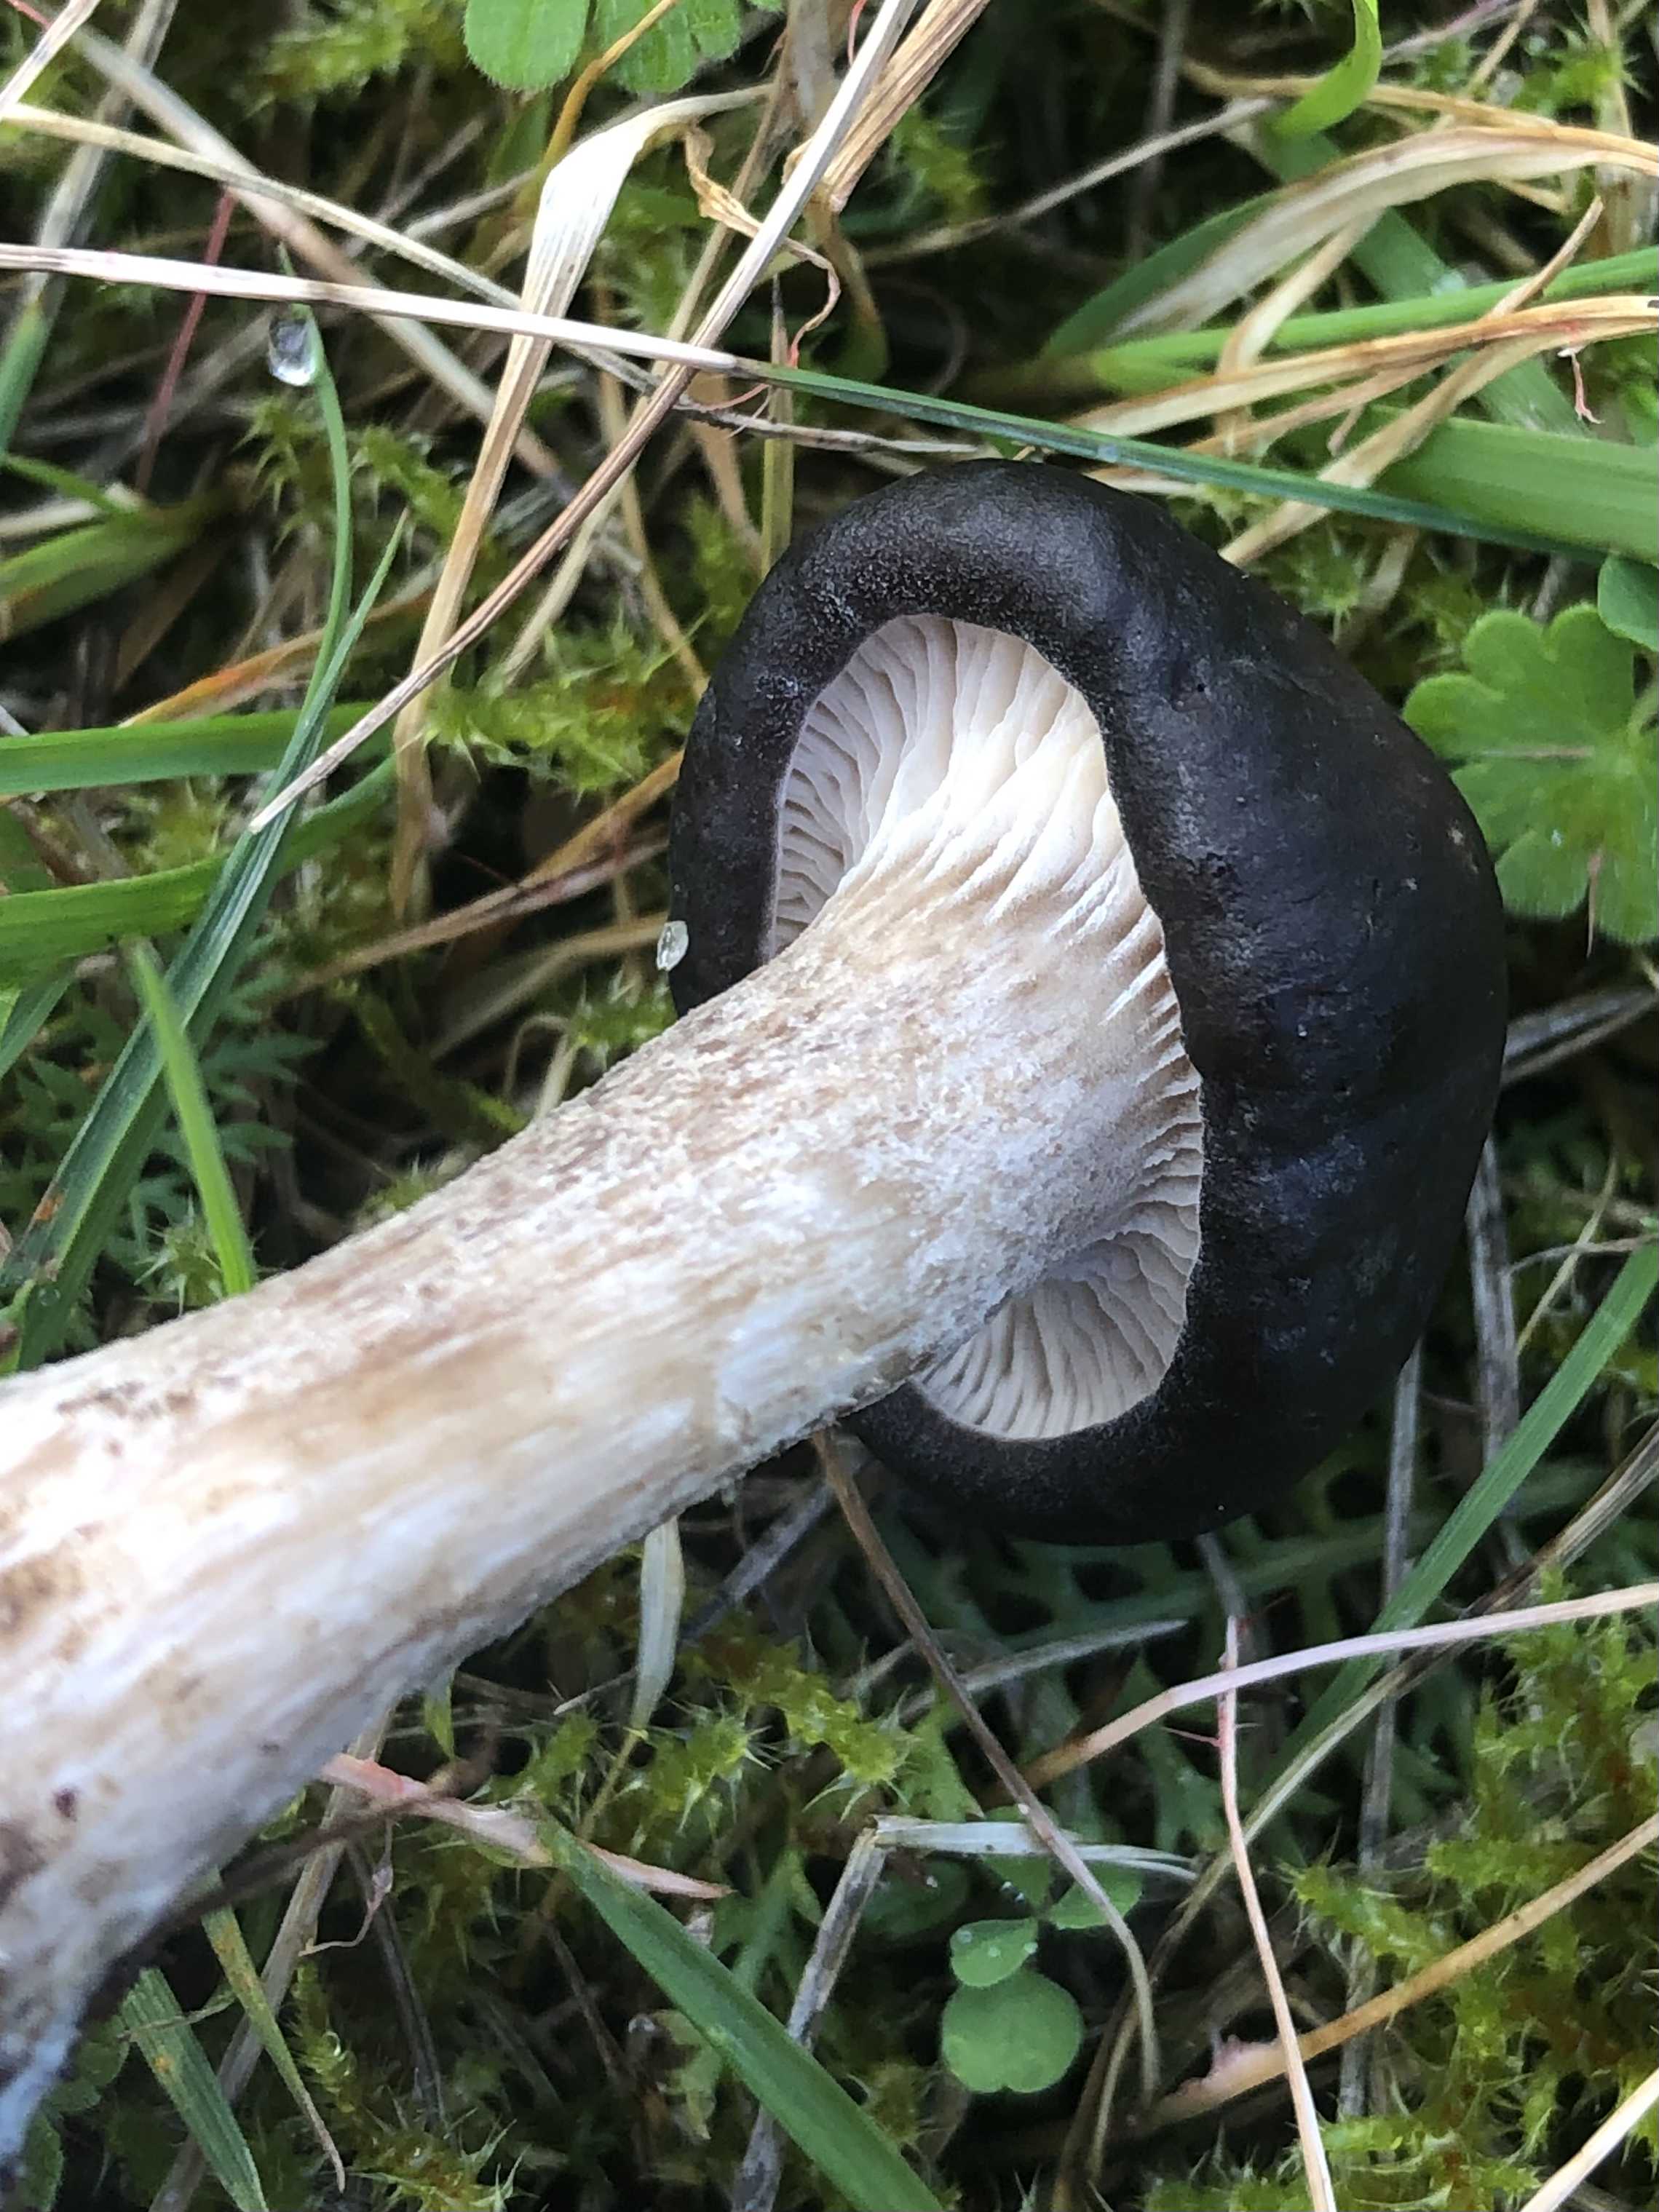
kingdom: Fungi
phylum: Basidiomycota
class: Agaricomycetes
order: Agaricales
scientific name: Agaricales
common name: champignonordenen
